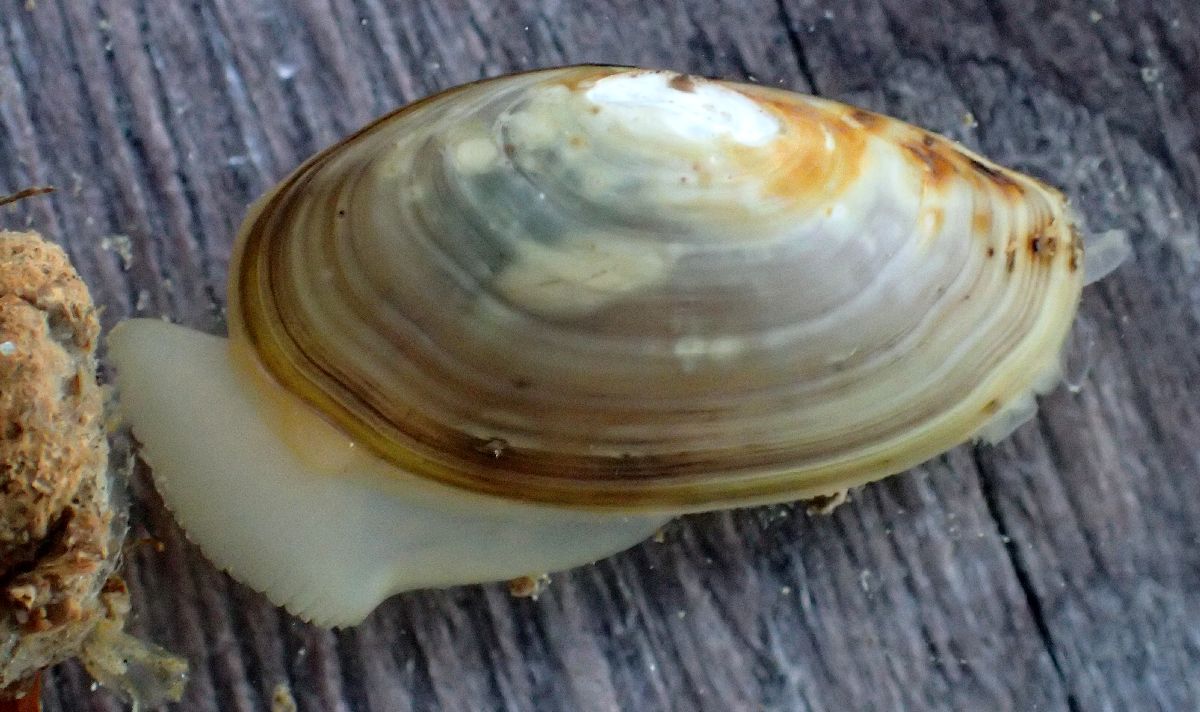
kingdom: Animalia
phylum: Mollusca
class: Bivalvia
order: Nuculanida
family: Yoldiidae
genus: Yoldia
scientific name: Yoldia hyperborea
